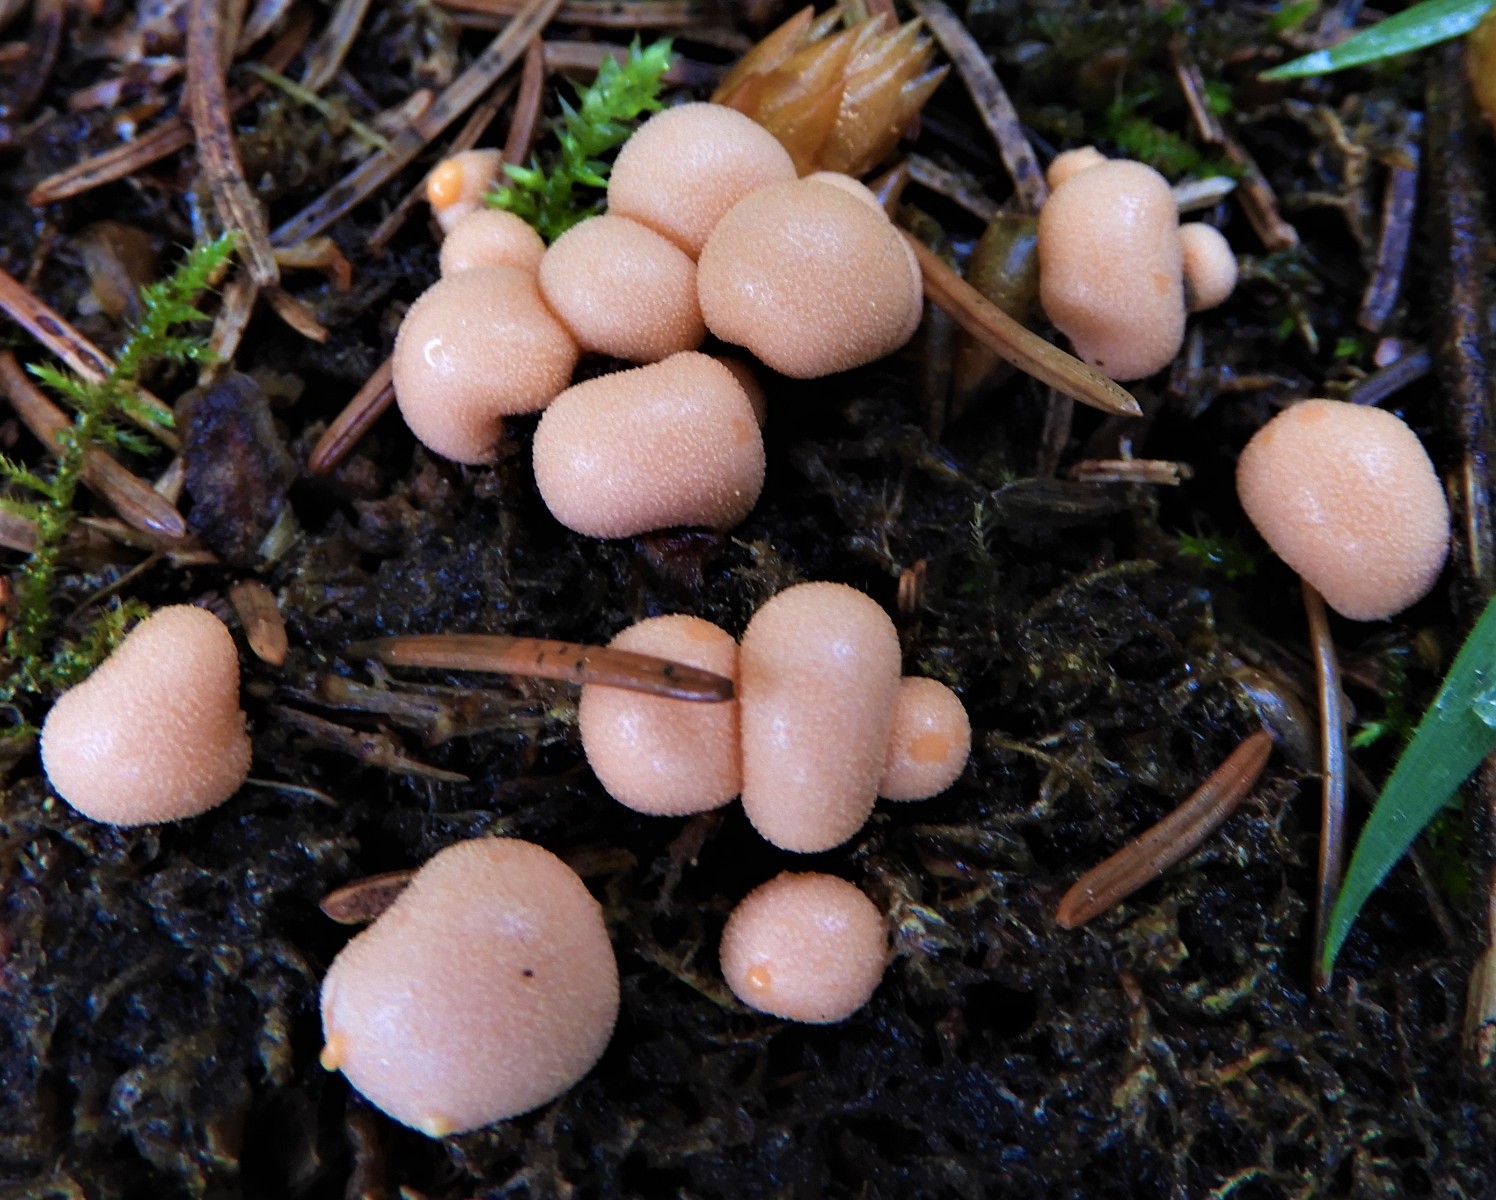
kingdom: Protozoa
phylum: Mycetozoa
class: Myxomycetes
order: Cribrariales
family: Tubiferaceae
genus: Lycogala
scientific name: Lycogala epidendrum
